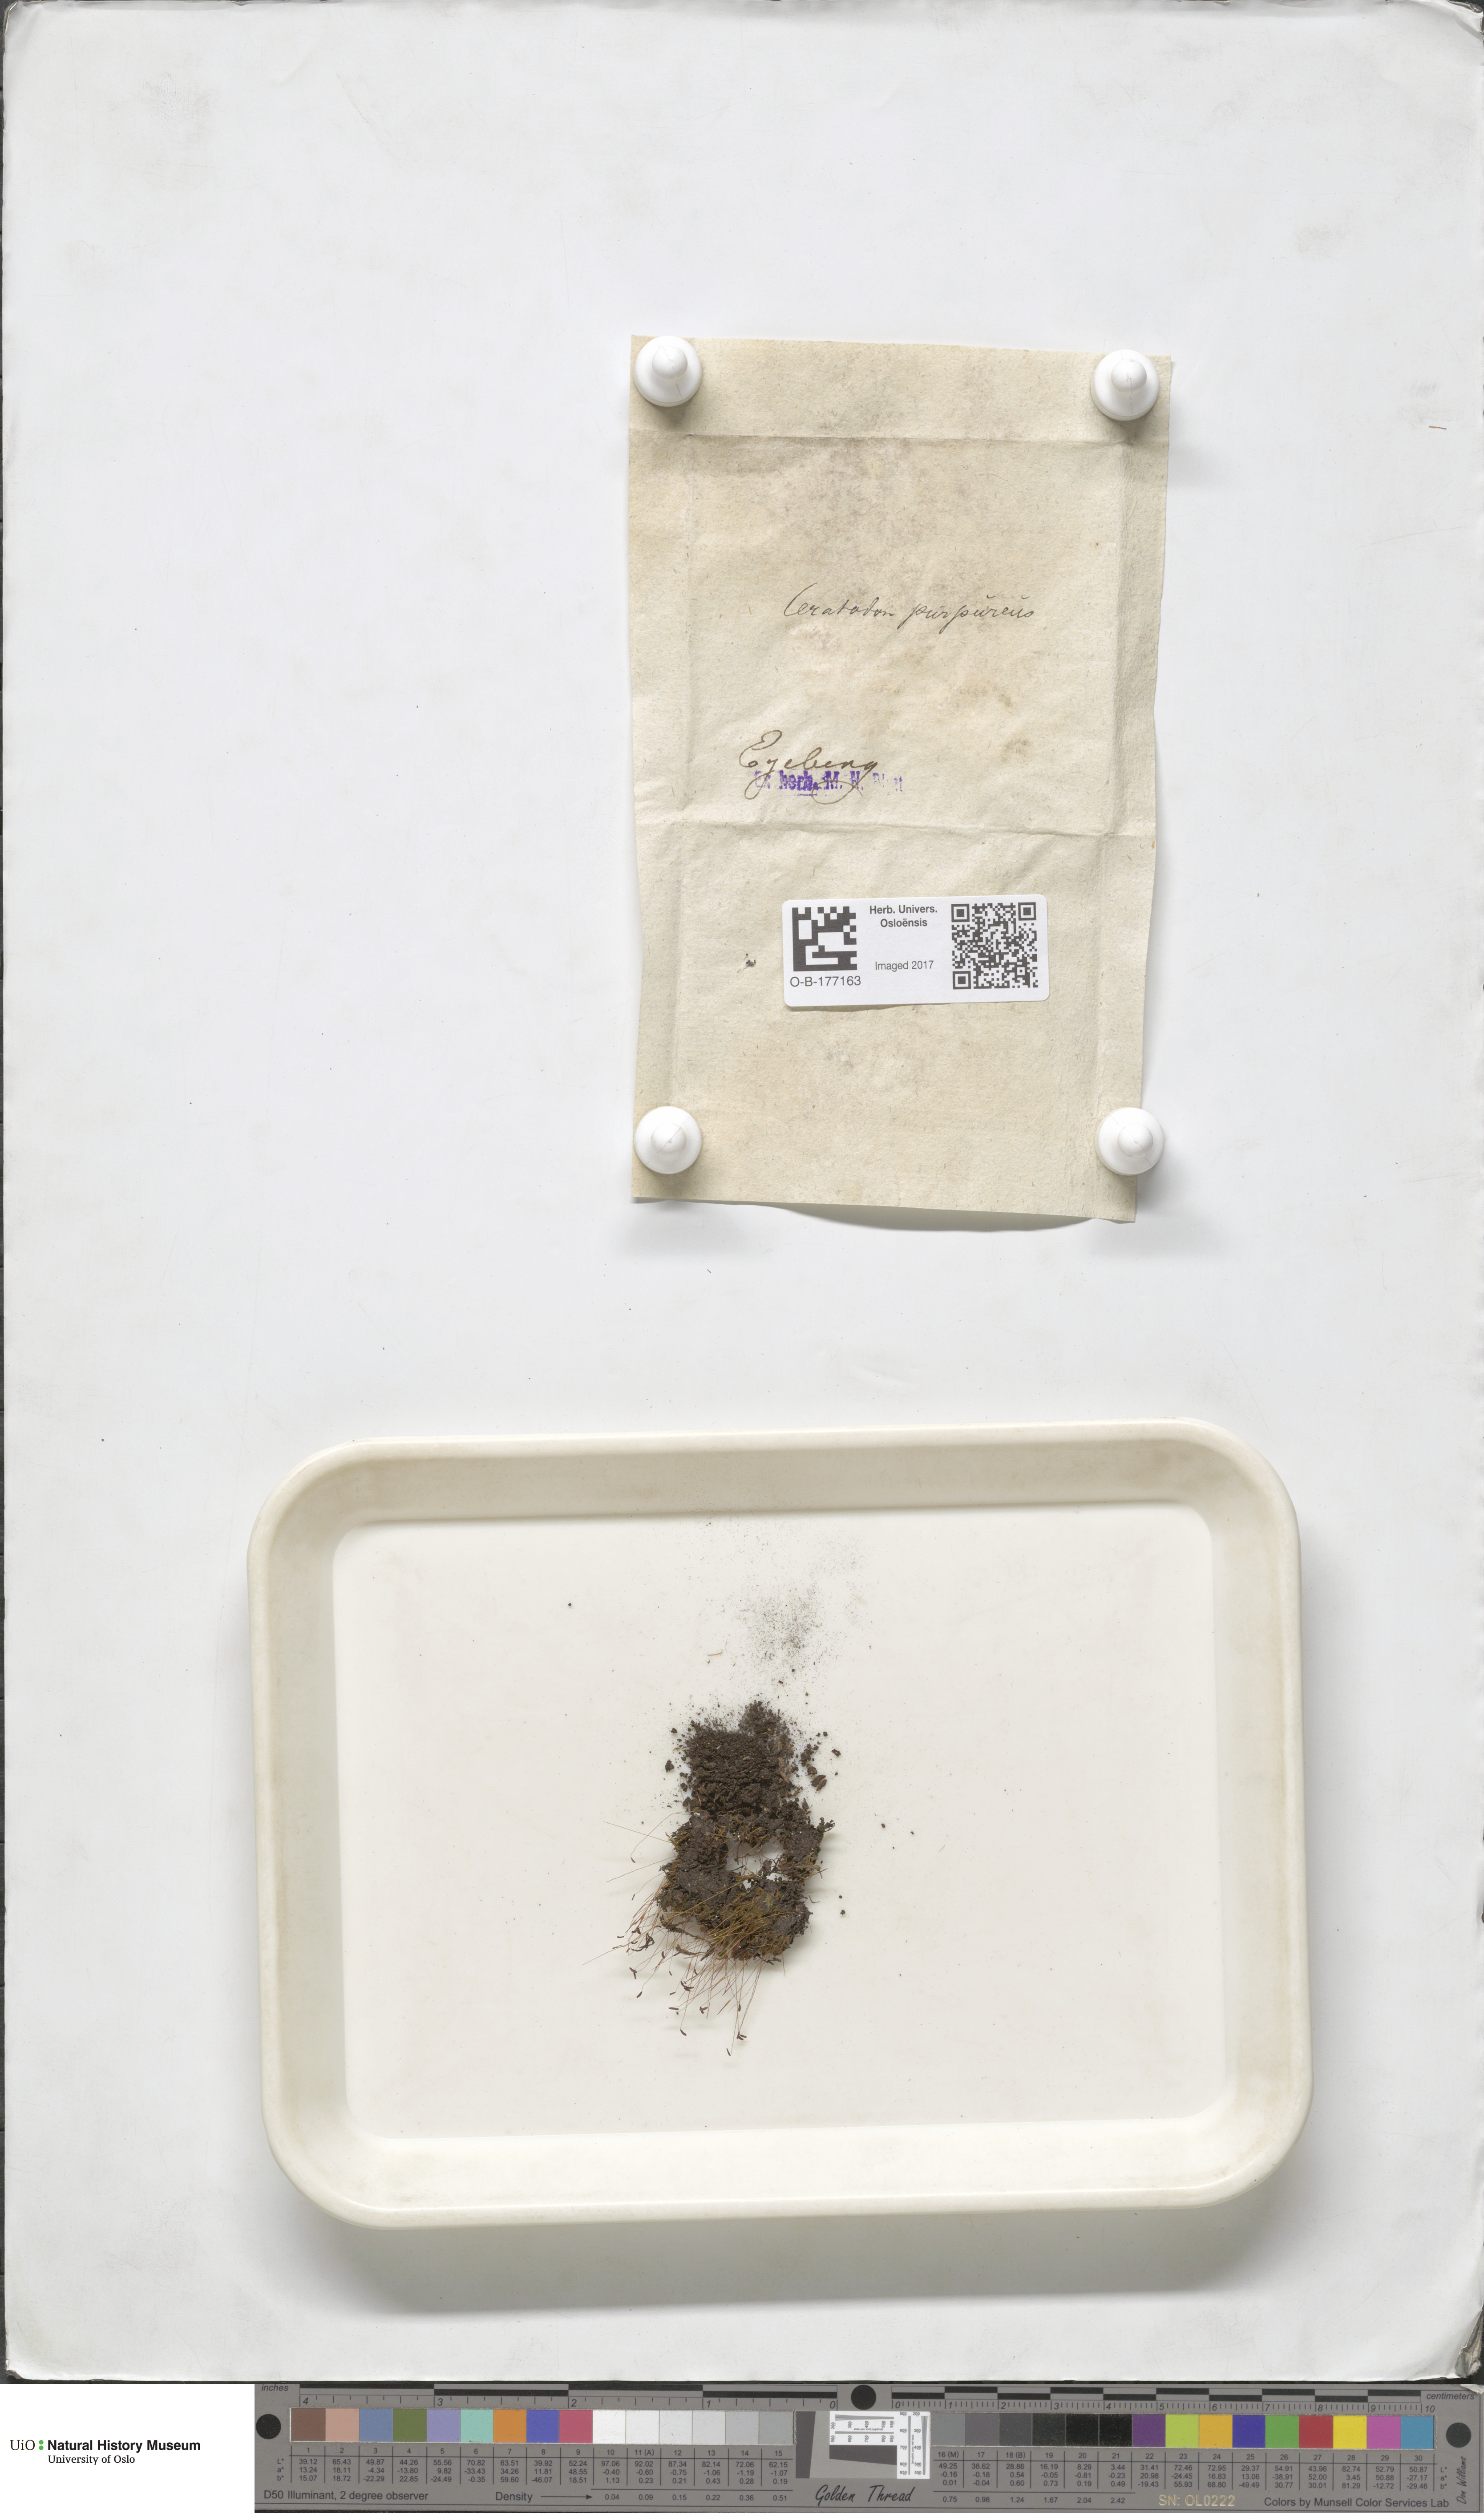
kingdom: Plantae
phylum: Bryophyta
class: Bryopsida
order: Dicranales
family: Ditrichaceae
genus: Ceratodon
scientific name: Ceratodon purpureus
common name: Redshank
